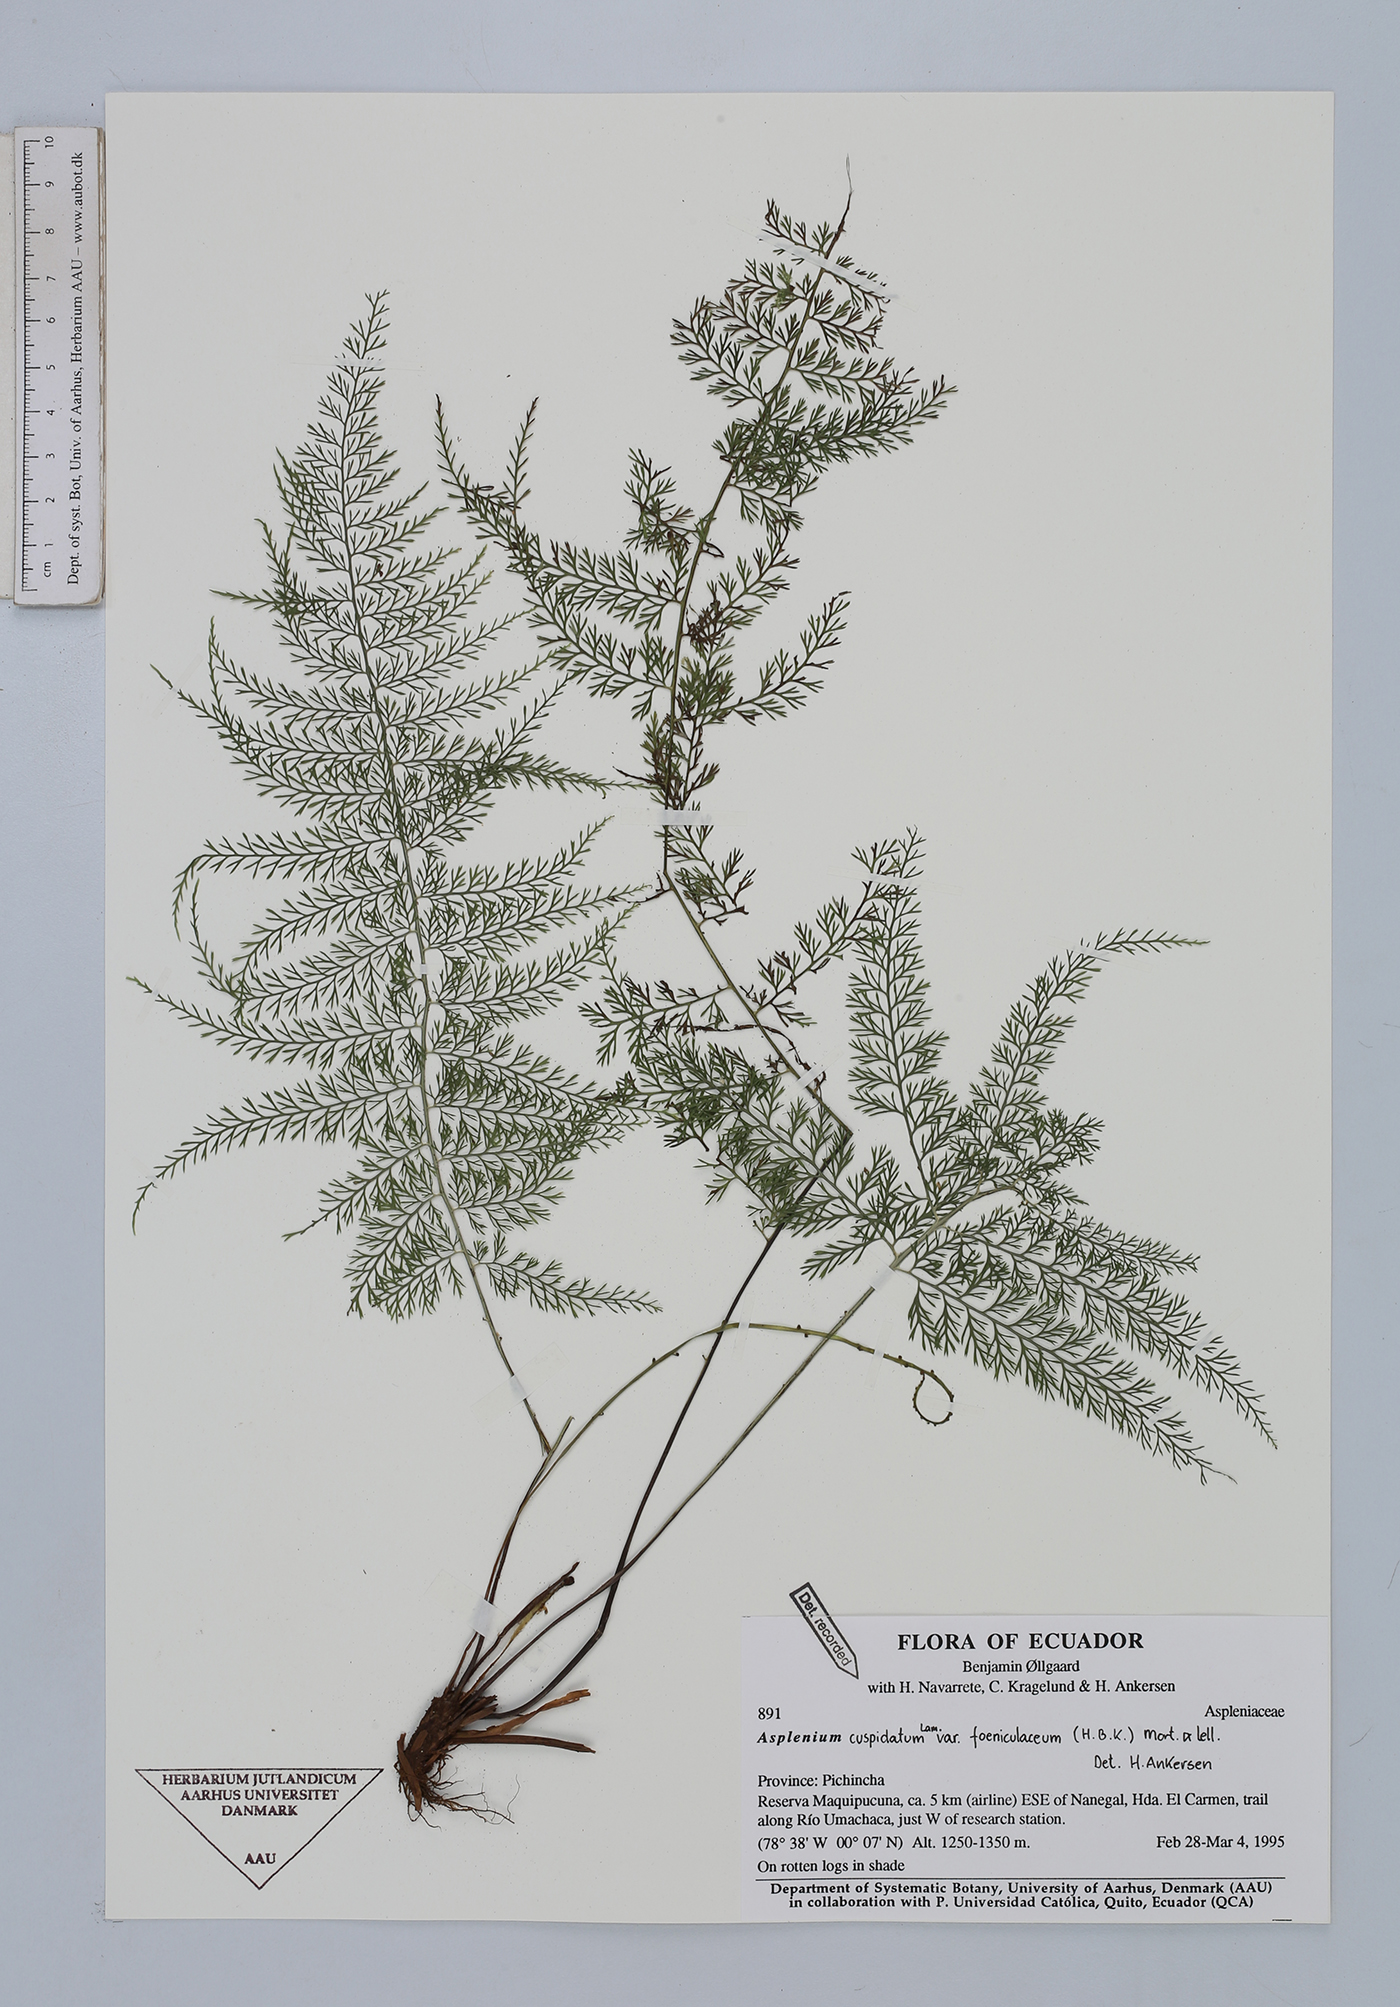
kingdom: Plantae
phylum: Tracheophyta
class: Polypodiopsida
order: Polypodiales
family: Aspleniaceae
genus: Asplenium
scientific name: Asplenium fragrans
